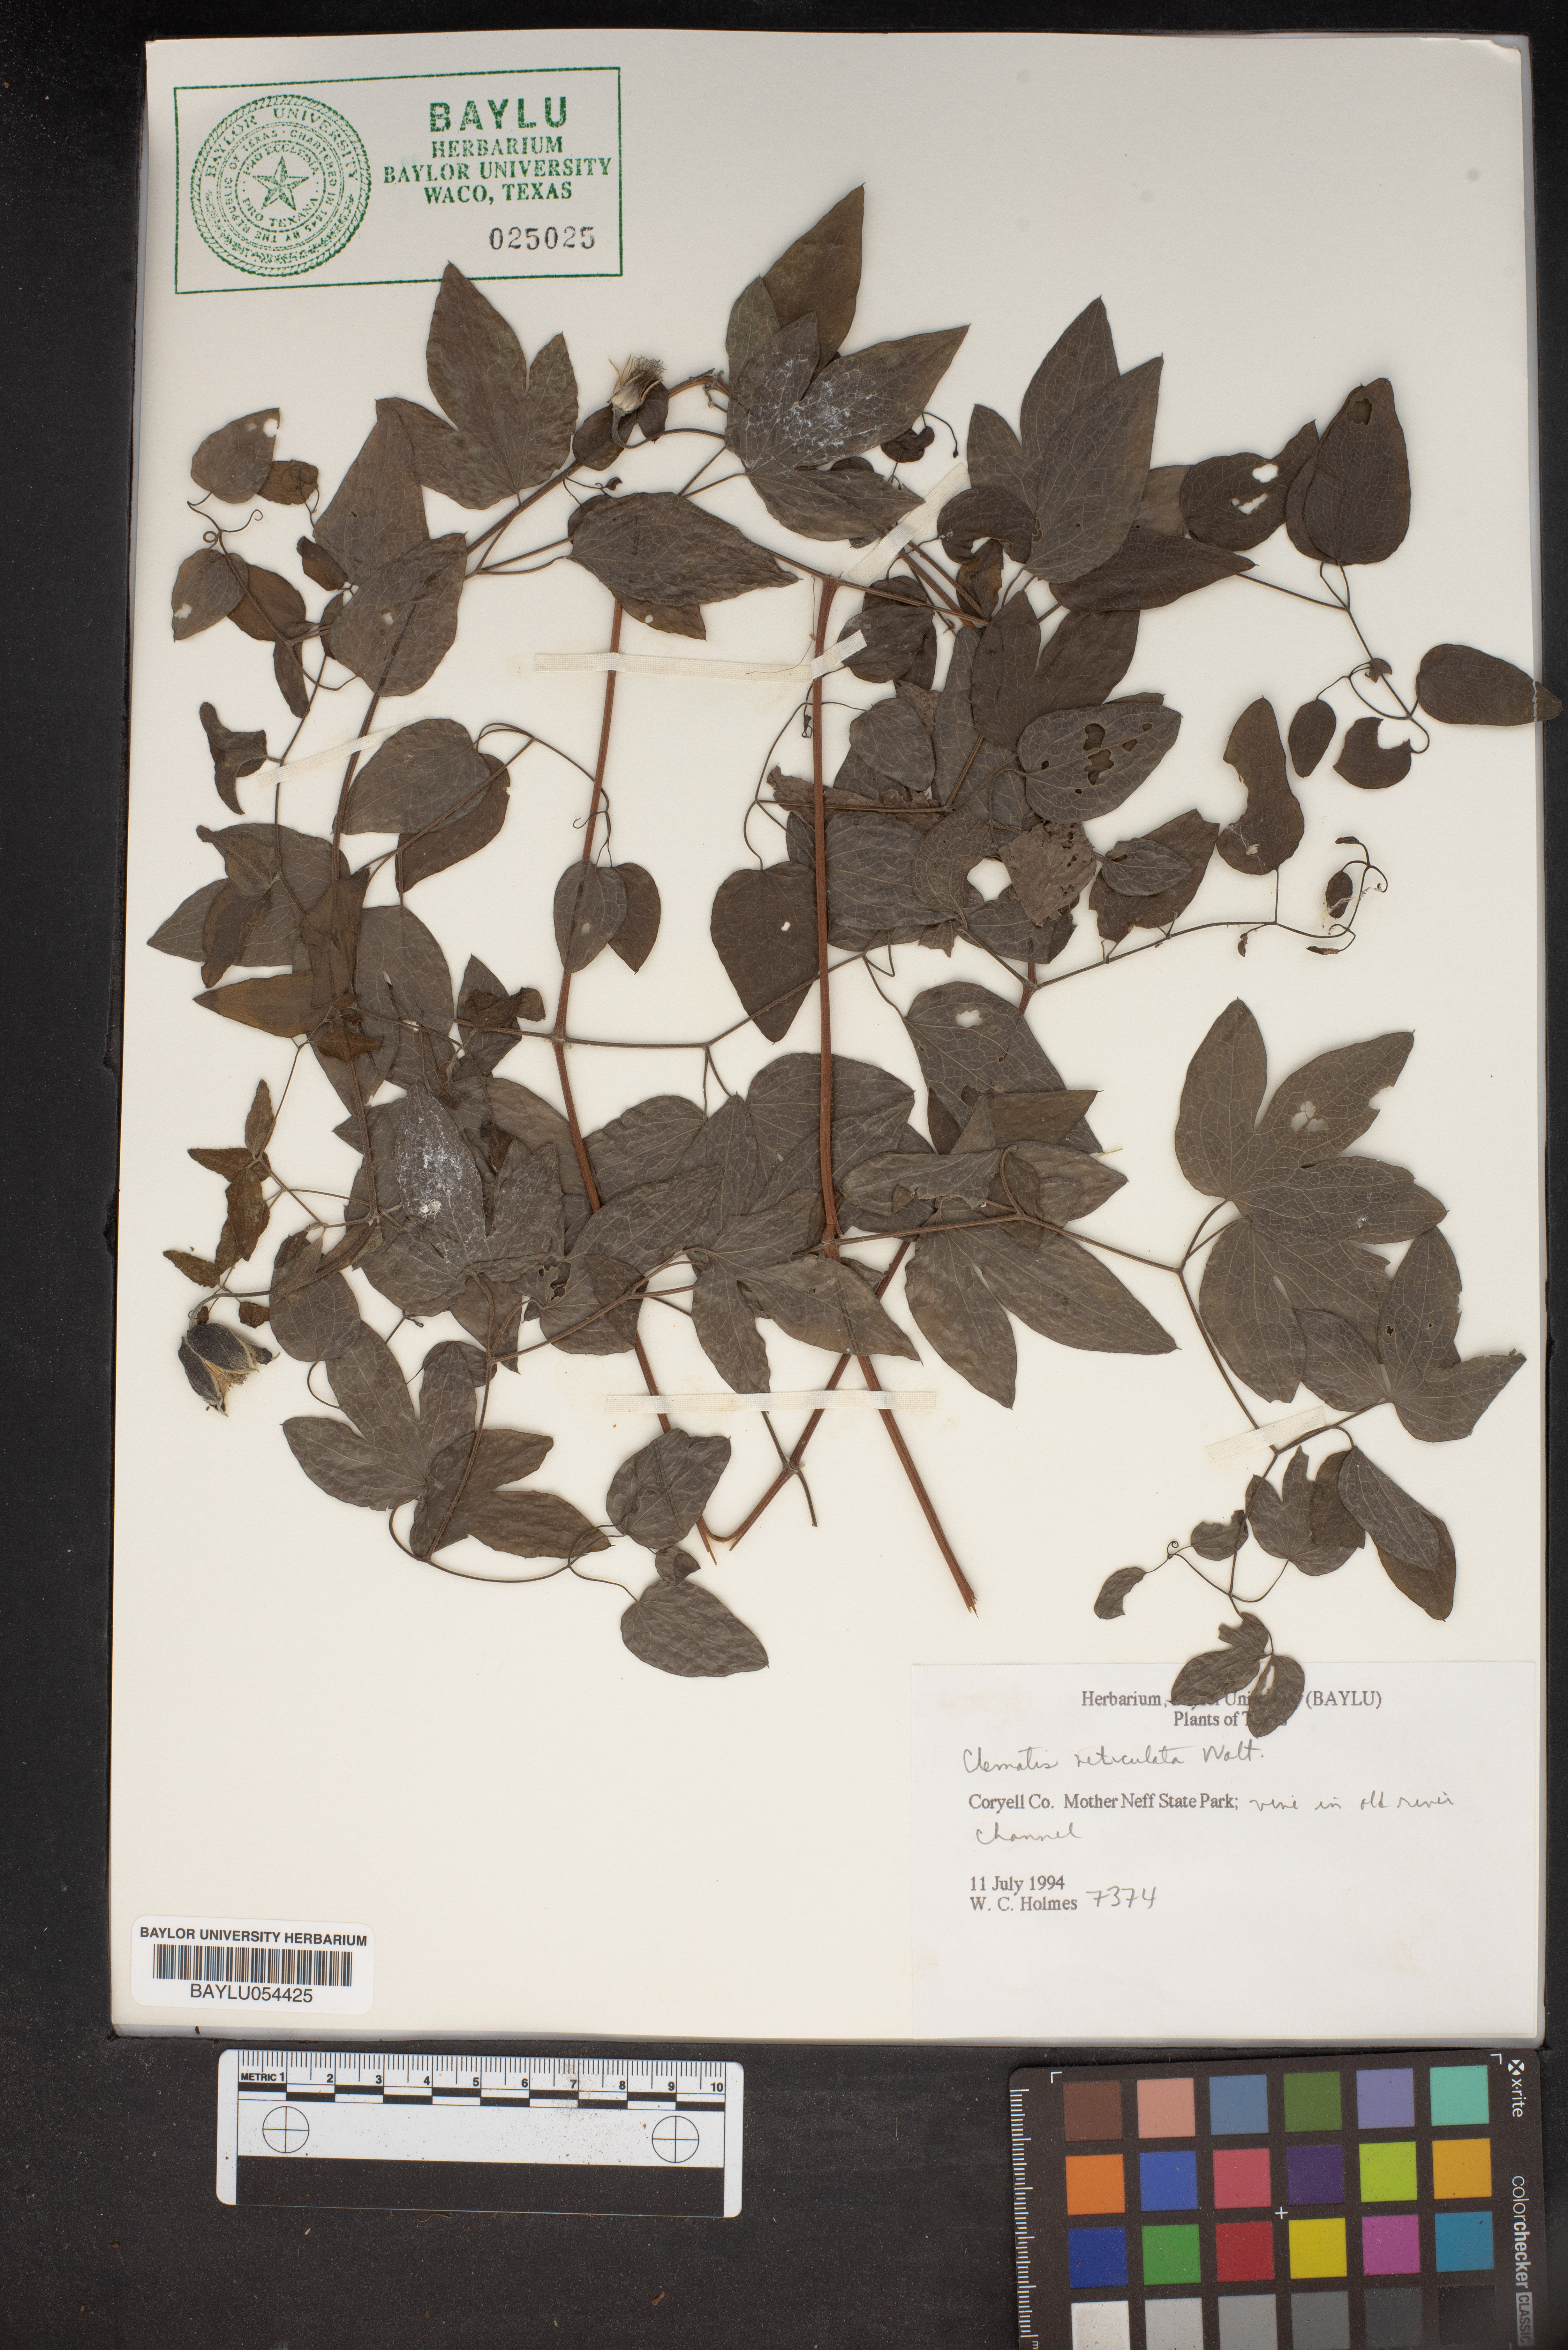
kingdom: Plantae
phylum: Tracheophyta
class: Magnoliopsida
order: Ranunculales
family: Ranunculaceae
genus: Clematis
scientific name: Clematis reticulata
